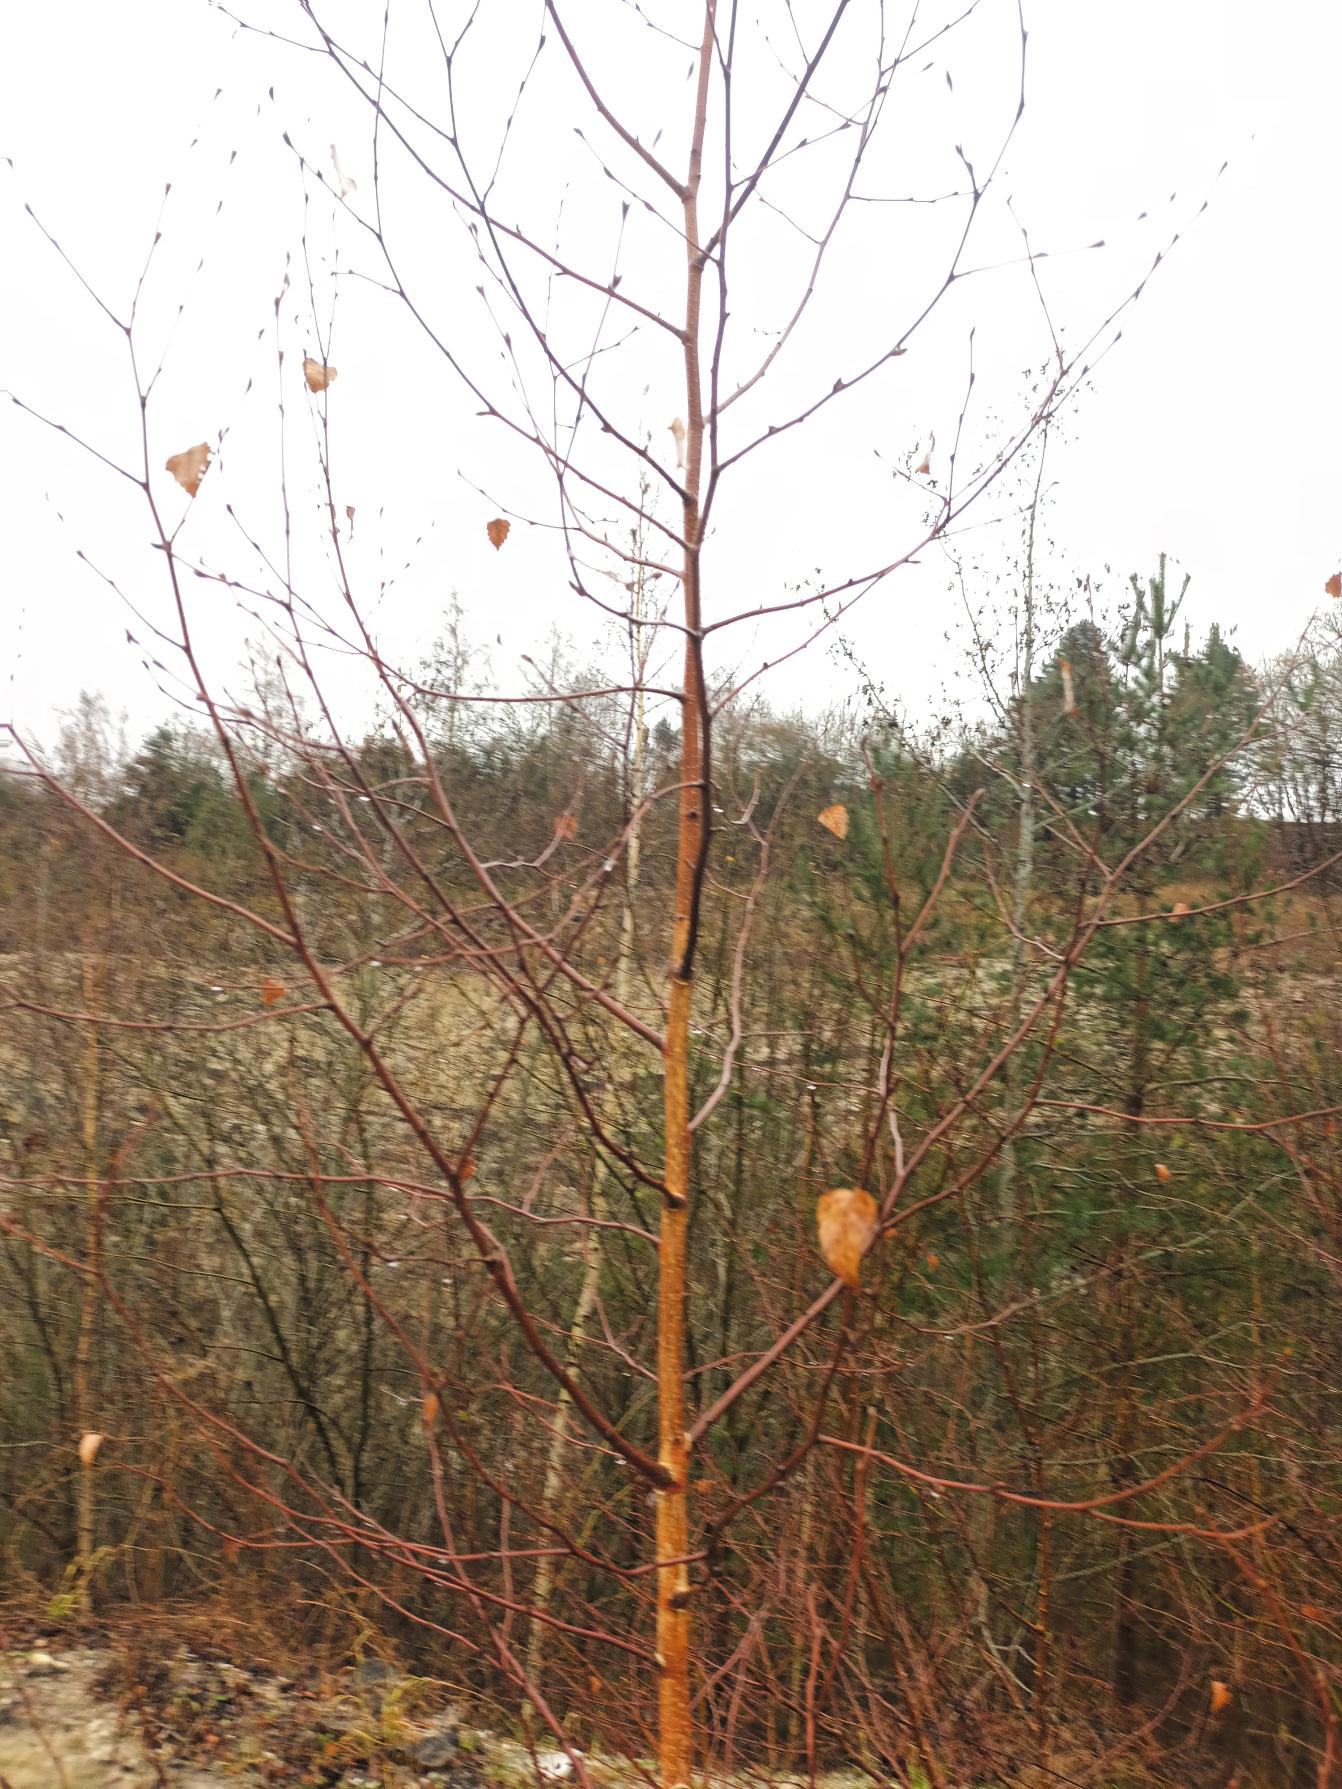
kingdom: Plantae
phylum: Tracheophyta
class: Magnoliopsida
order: Fagales
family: Betulaceae
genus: Betula
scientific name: Betula pendula
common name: Vorte-birk
